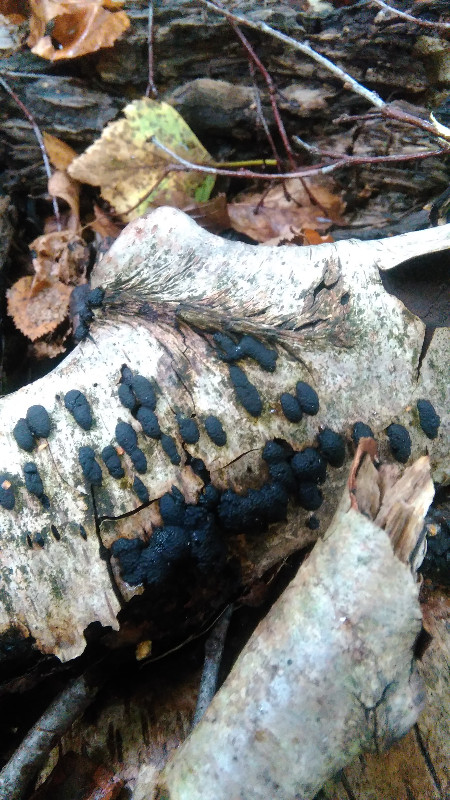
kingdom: Fungi
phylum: Ascomycota
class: Sordariomycetes
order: Xylariales
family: Hypoxylaceae
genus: Jackrogersella
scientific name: Jackrogersella multiformis
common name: foranderlig kulbær
